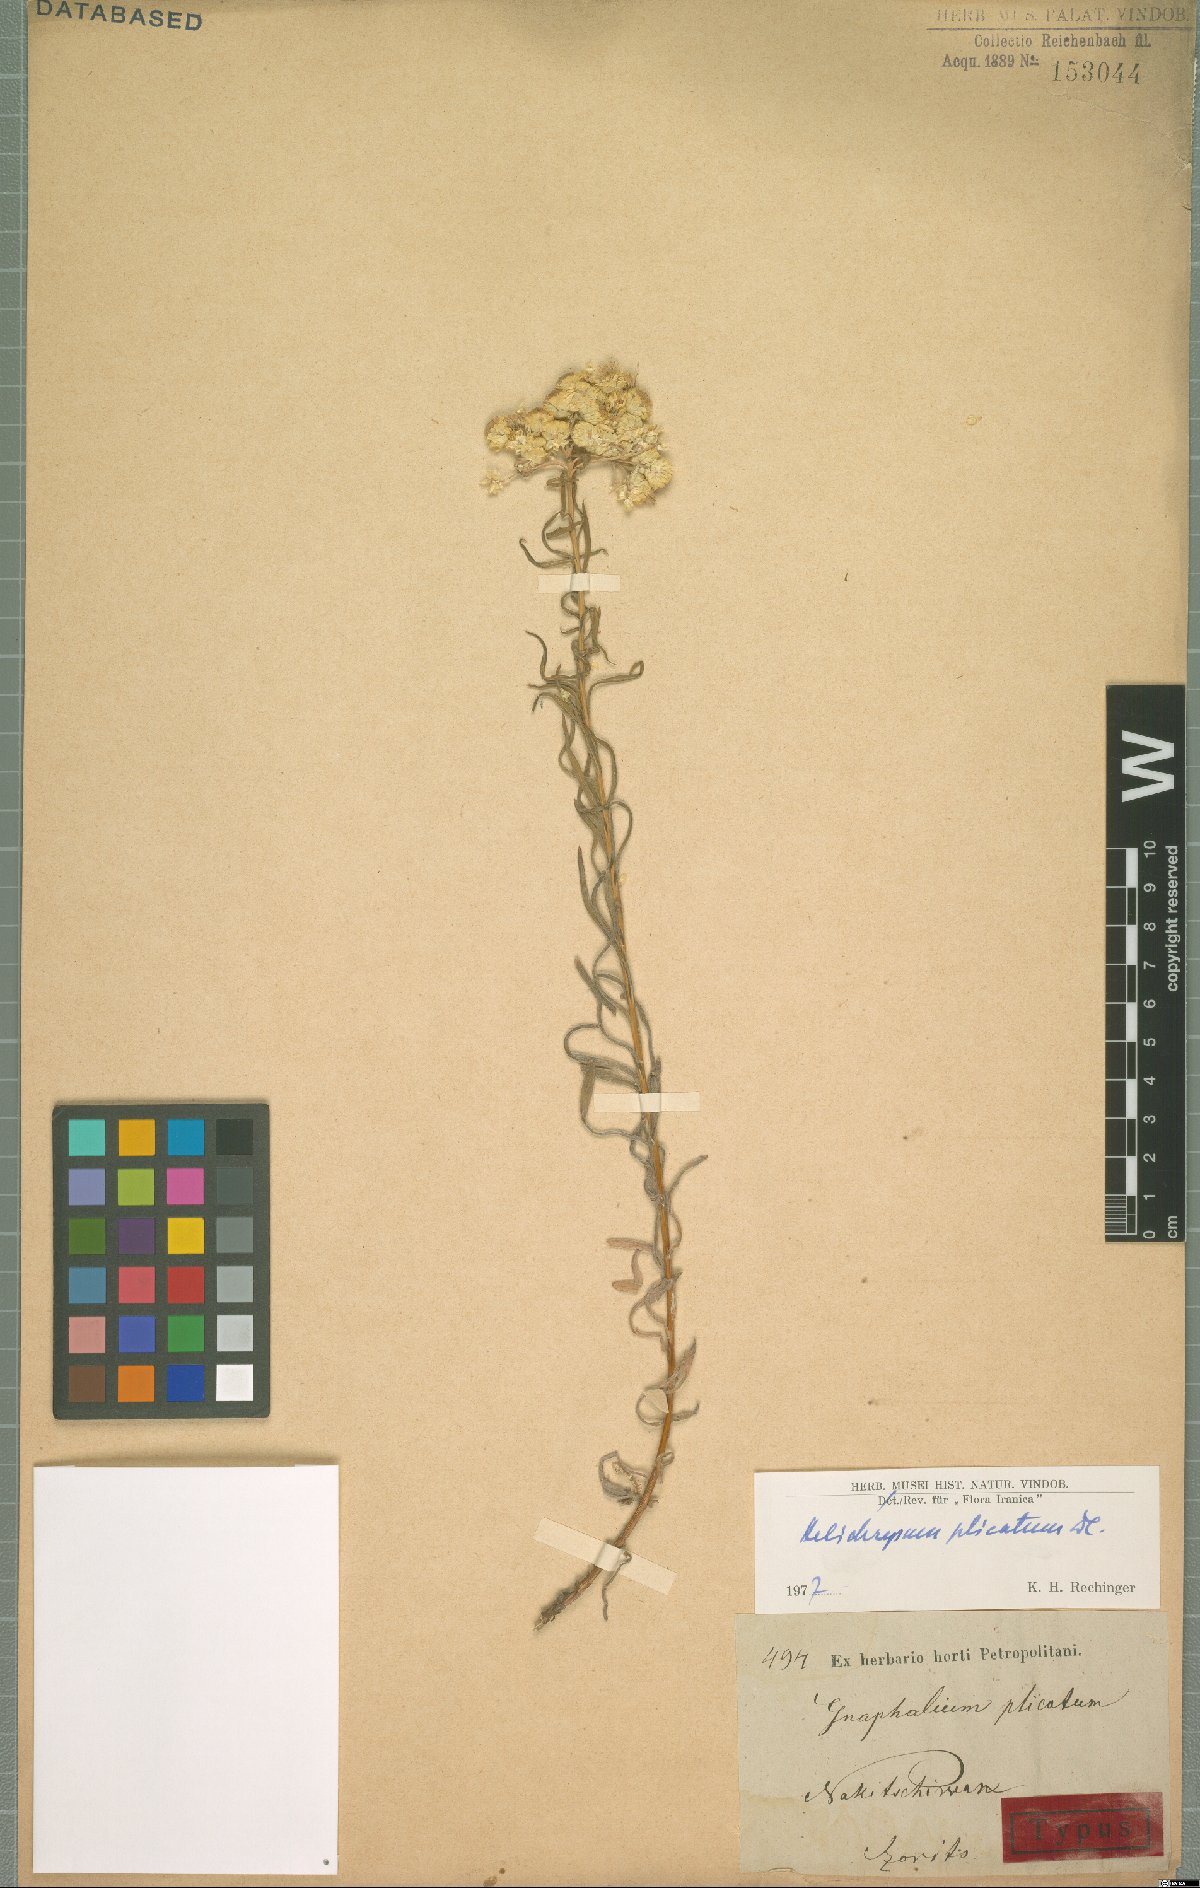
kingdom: Plantae
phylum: Tracheophyta
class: Magnoliopsida
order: Asterales
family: Asteraceae
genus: Helichrysum
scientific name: Helichrysum plicatum
